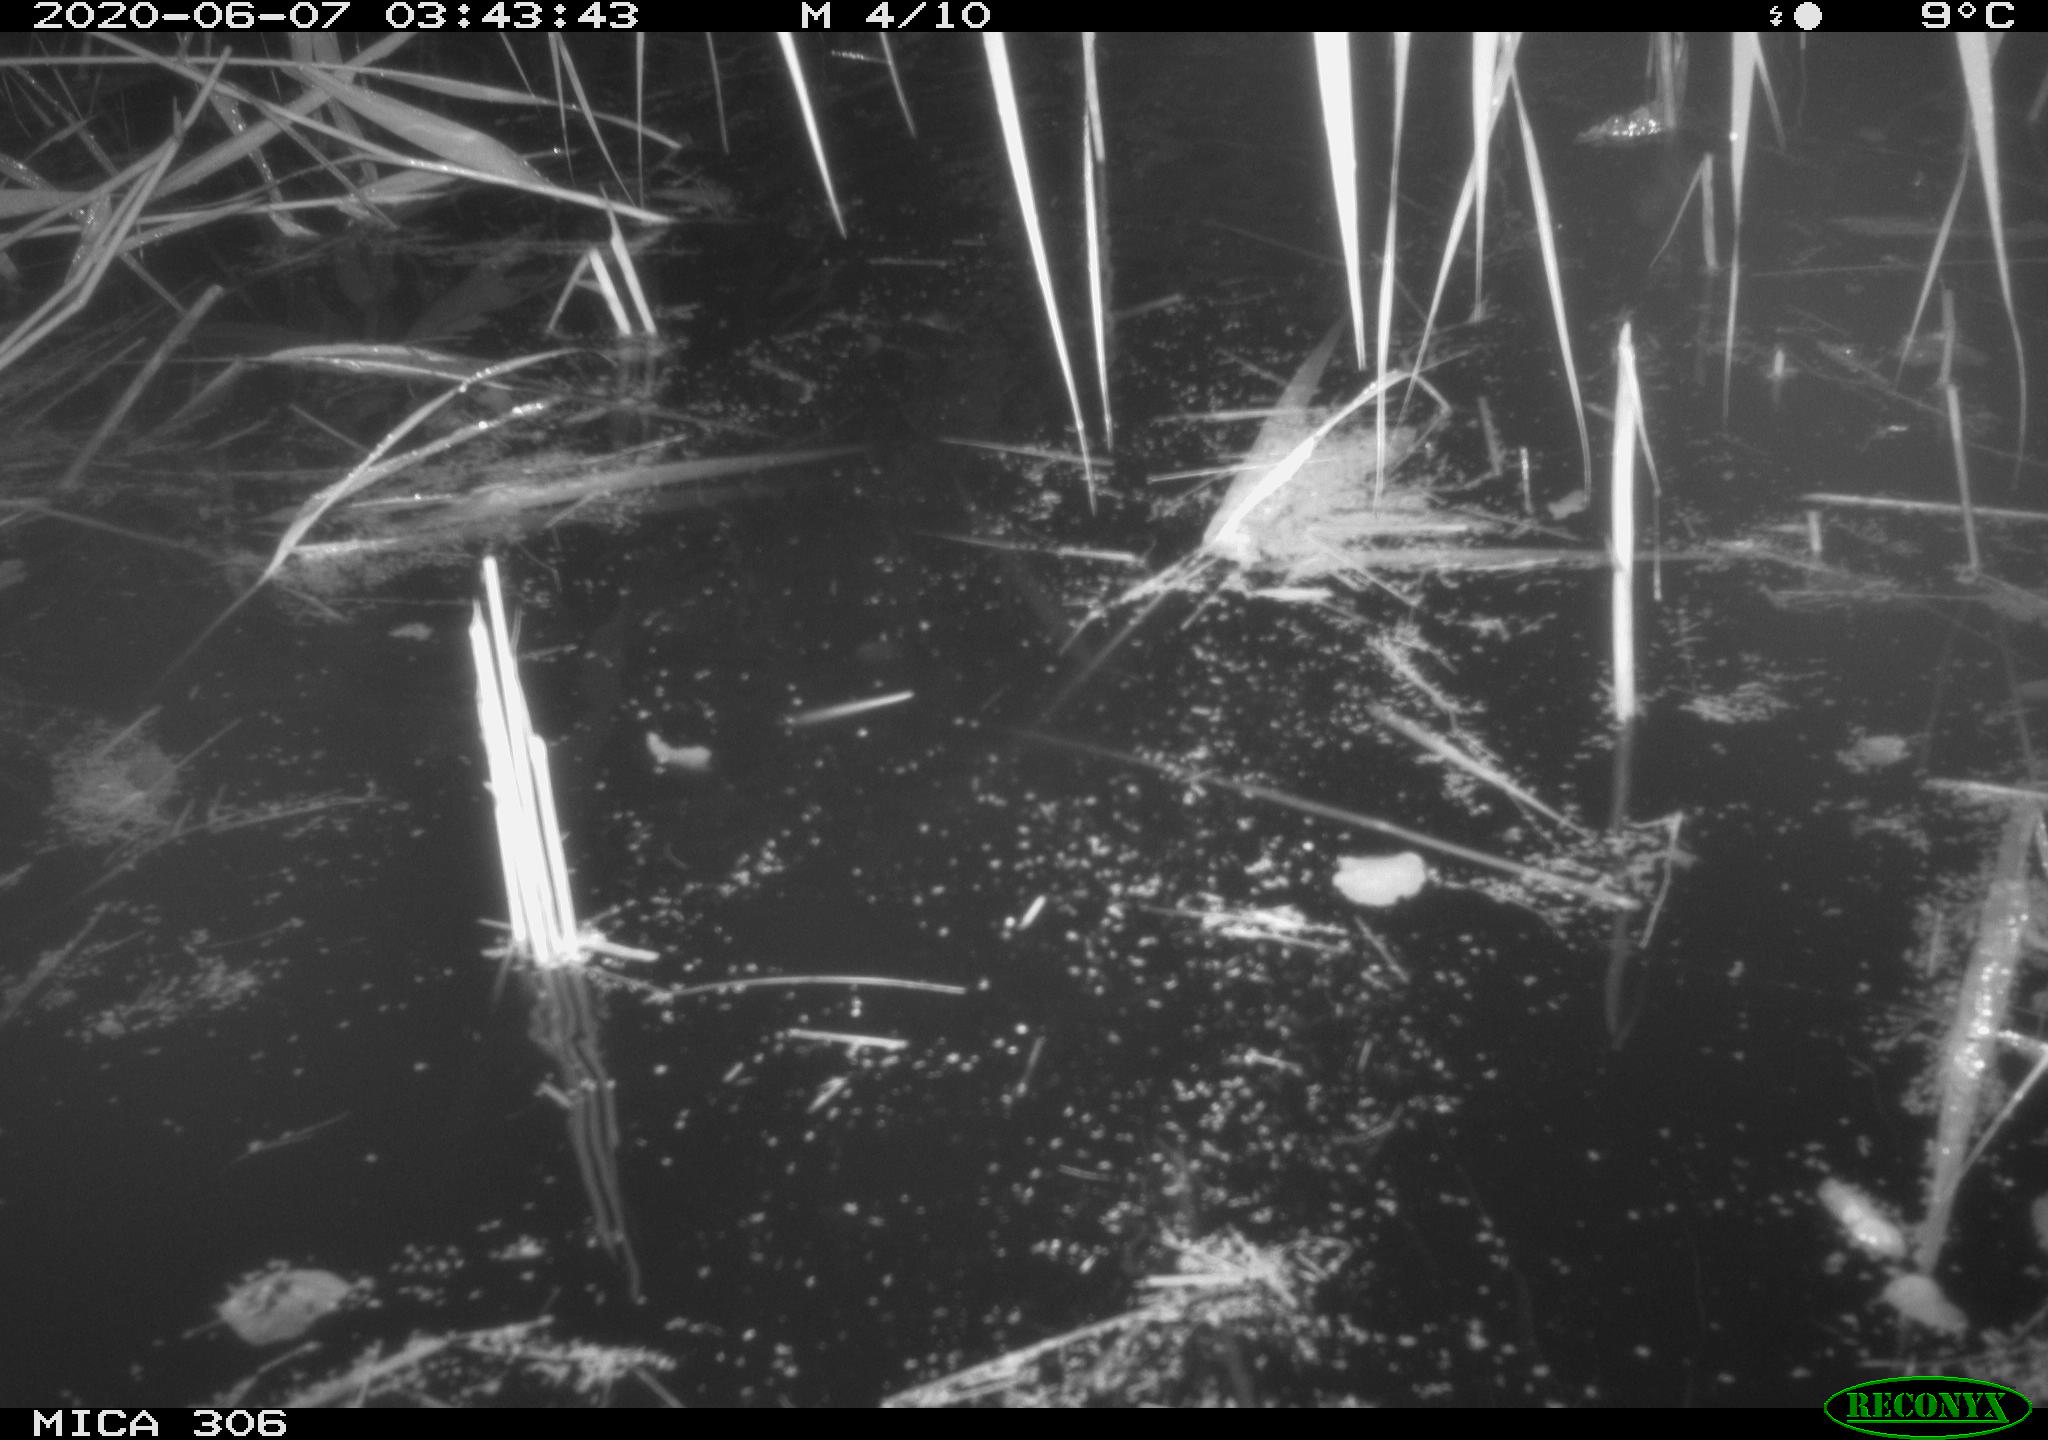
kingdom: Animalia
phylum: Chordata
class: Mammalia
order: Rodentia
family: Muridae
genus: Rattus
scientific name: Rattus norvegicus
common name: Brown rat
